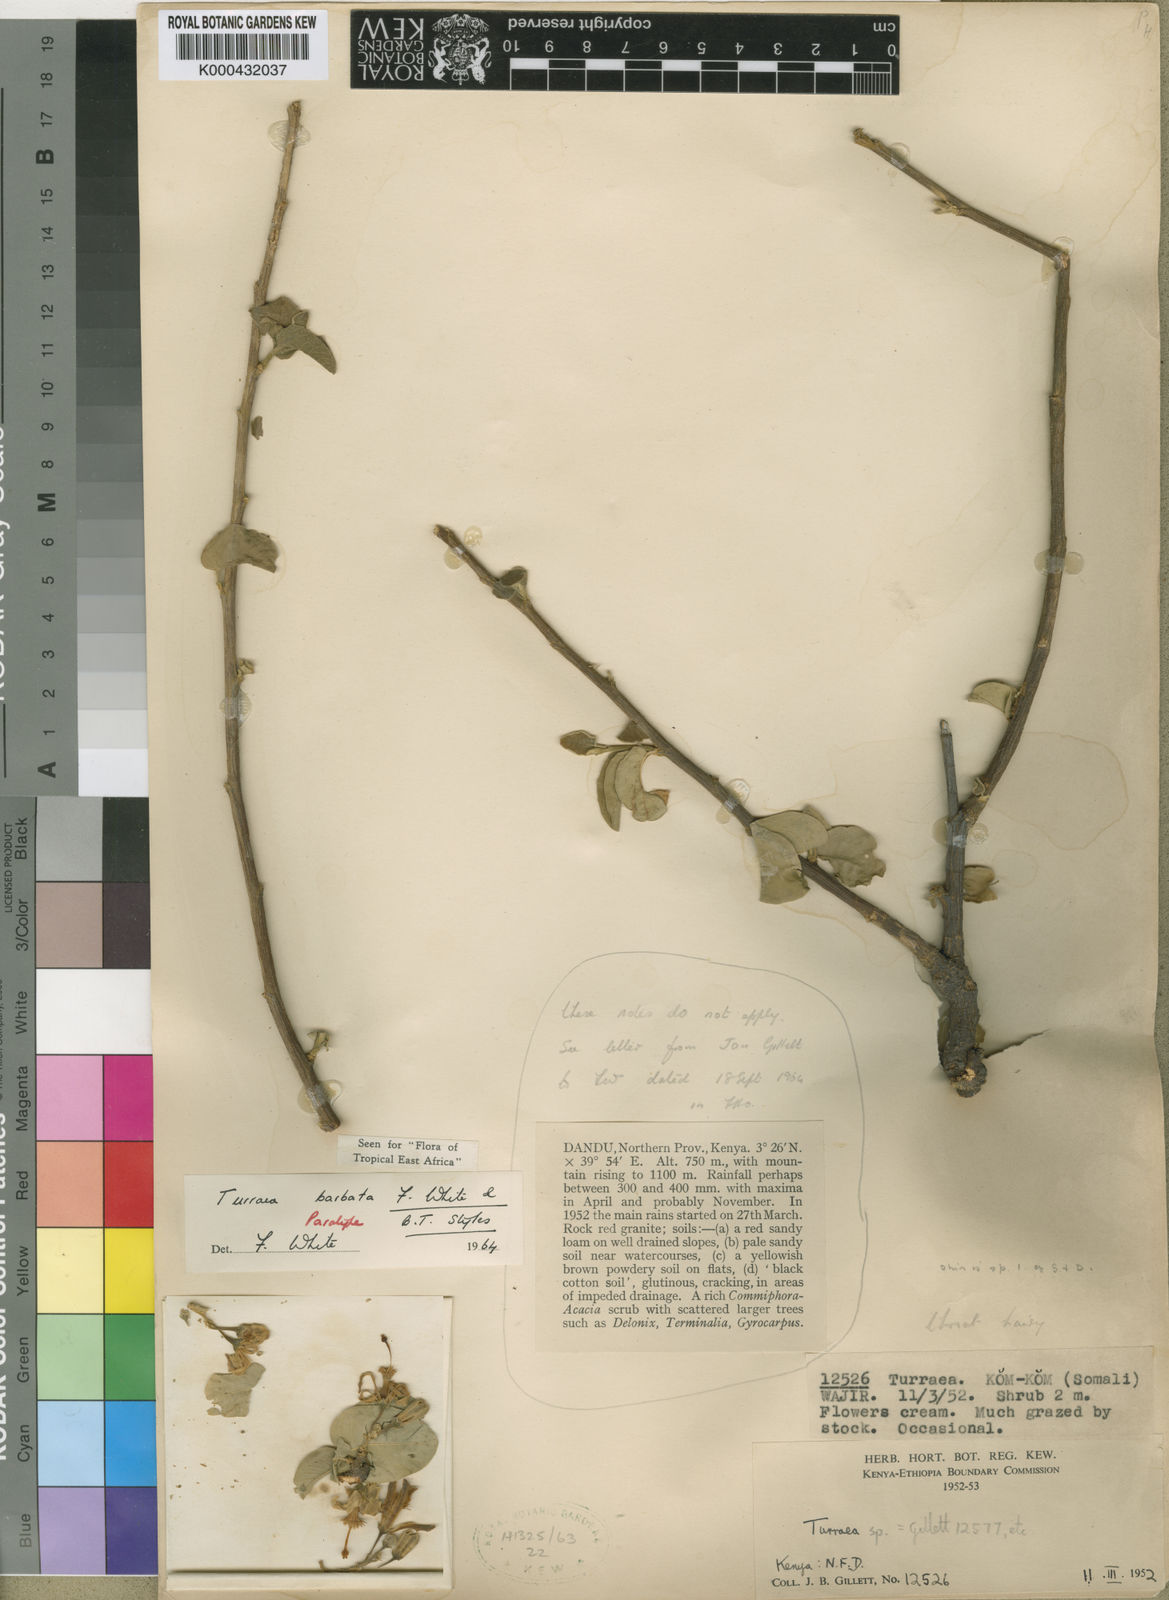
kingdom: Plantae
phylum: Tracheophyta
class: Magnoliopsida
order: Sapindales
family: Meliaceae
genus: Turraea
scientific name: Turraea barbata
